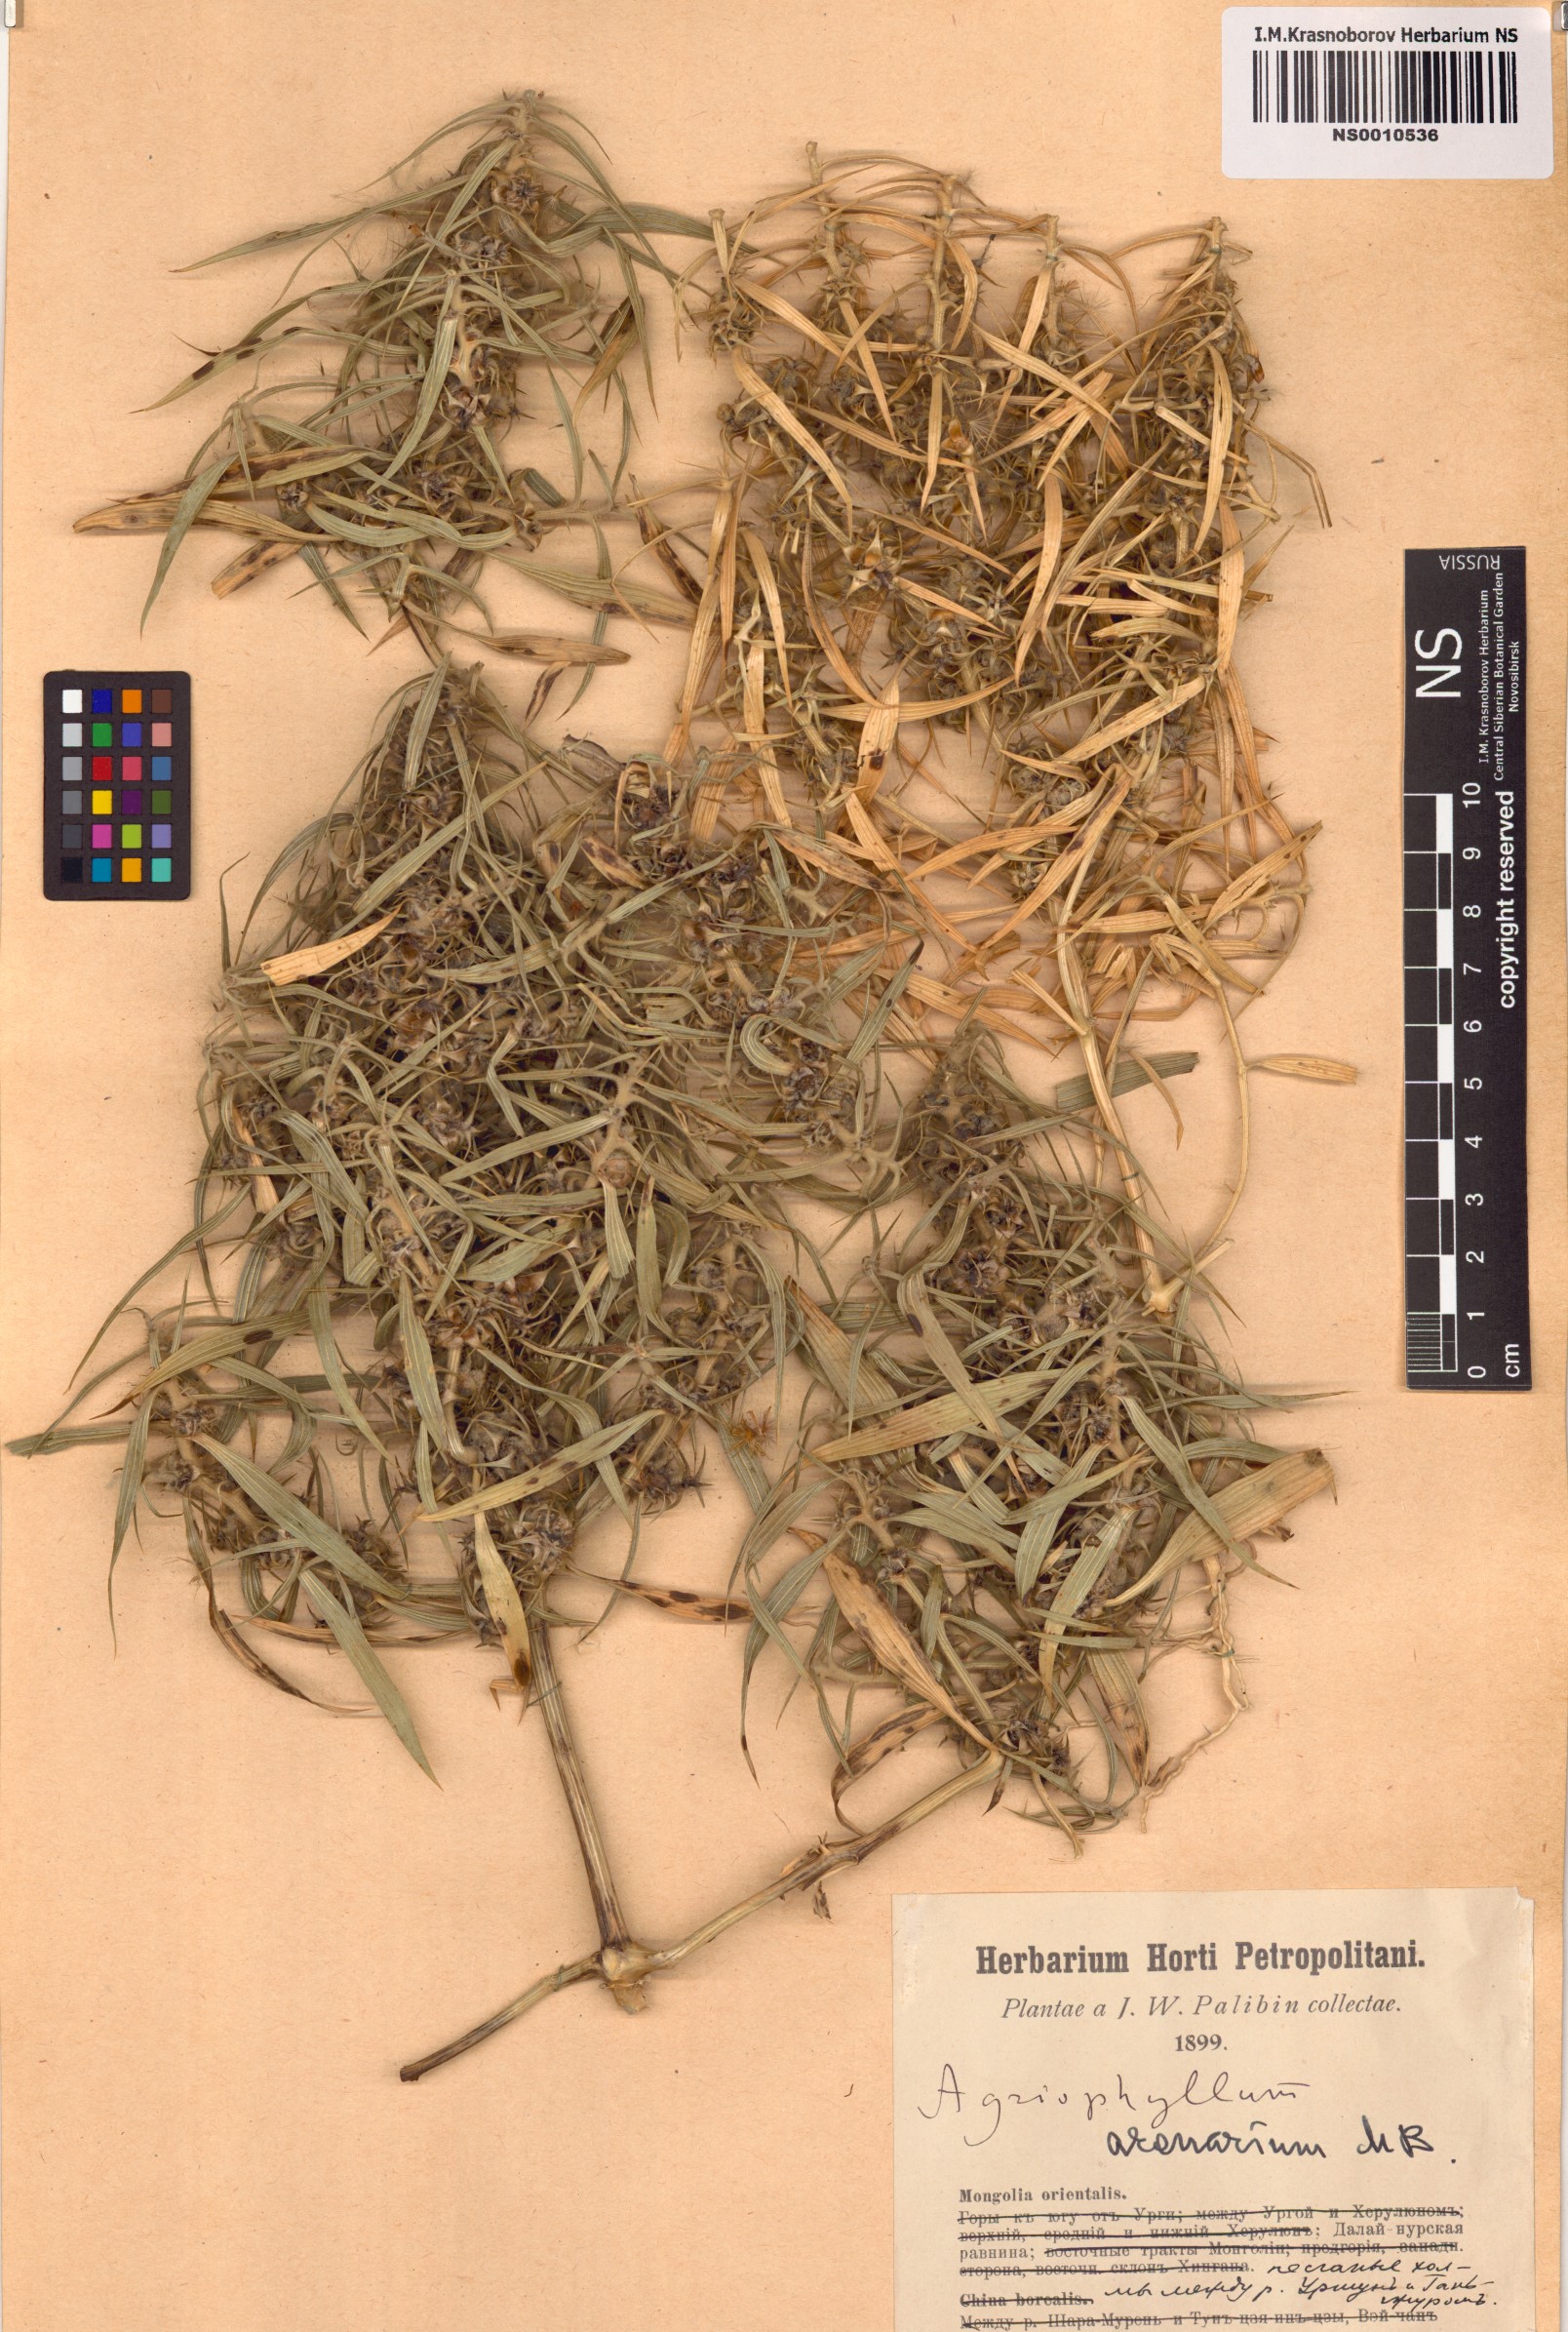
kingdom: Plantae
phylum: Tracheophyta
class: Magnoliopsida
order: Caryophyllales
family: Amaranthaceae
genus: Agriophyllum
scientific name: Agriophyllum pungens
